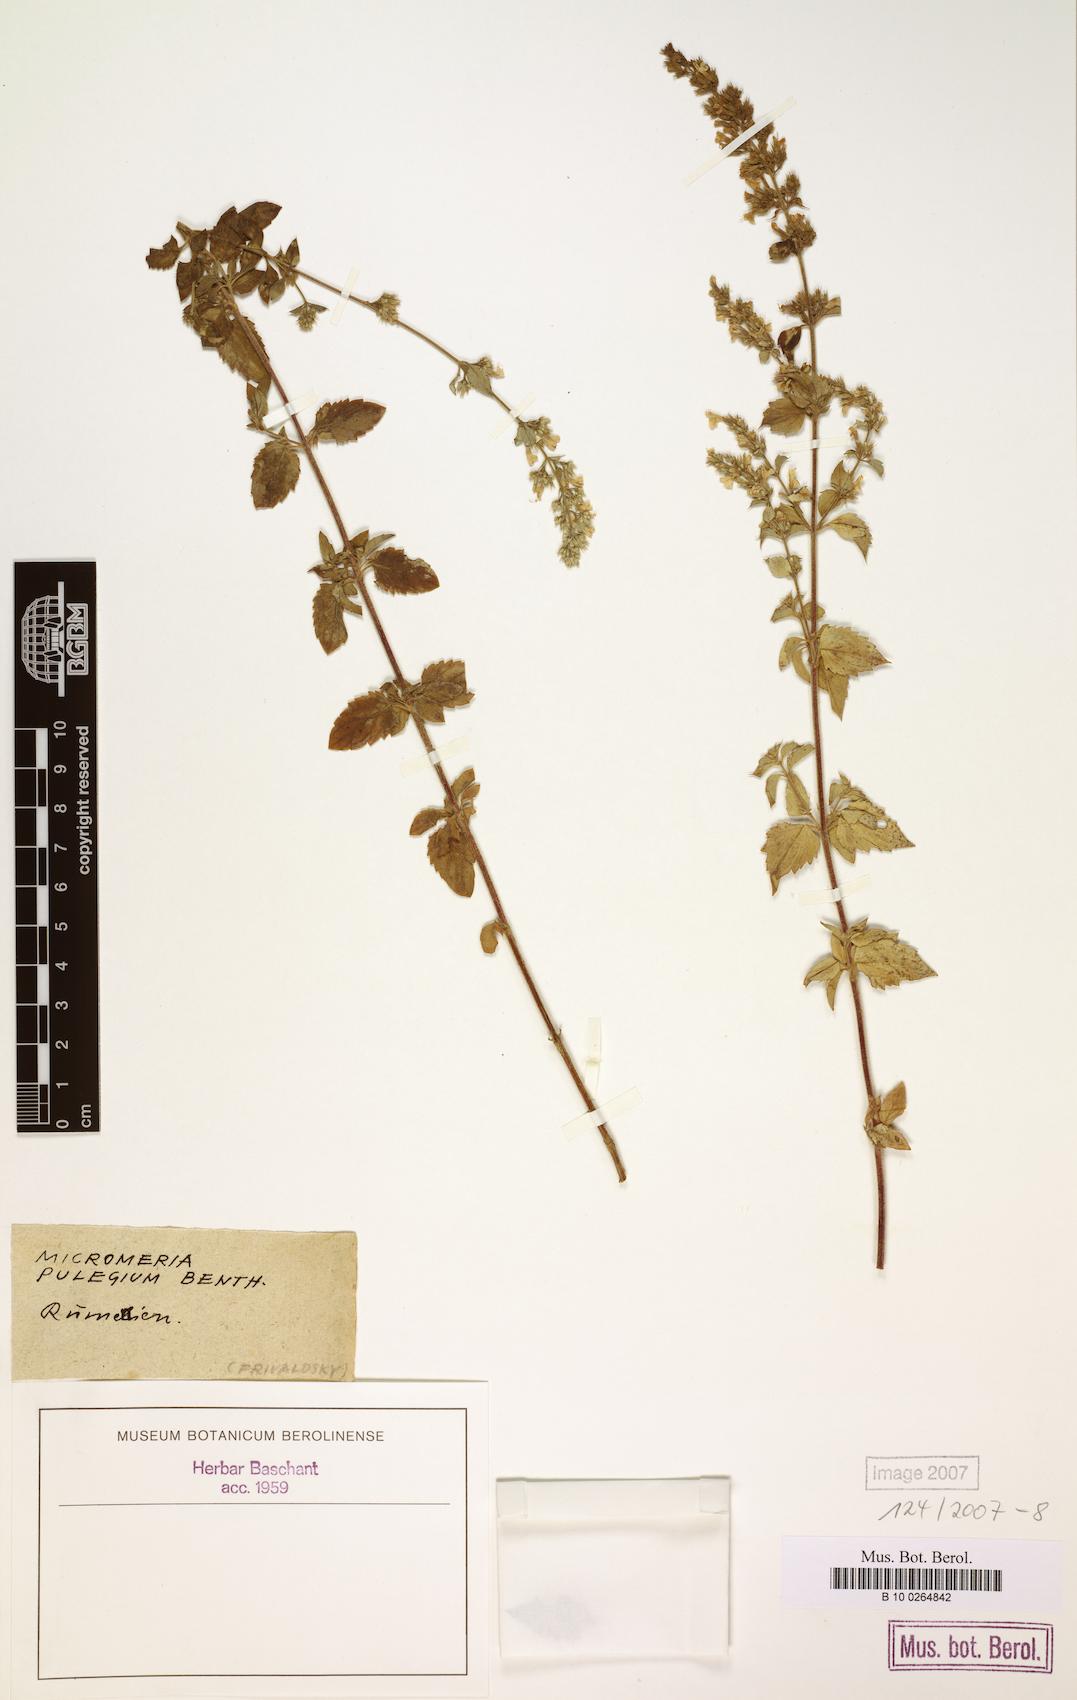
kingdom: Plantae
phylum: Tracheophyta
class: Magnoliopsida
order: Lamiales
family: Lamiaceae
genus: Clinopodium
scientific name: Clinopodium pulegium
